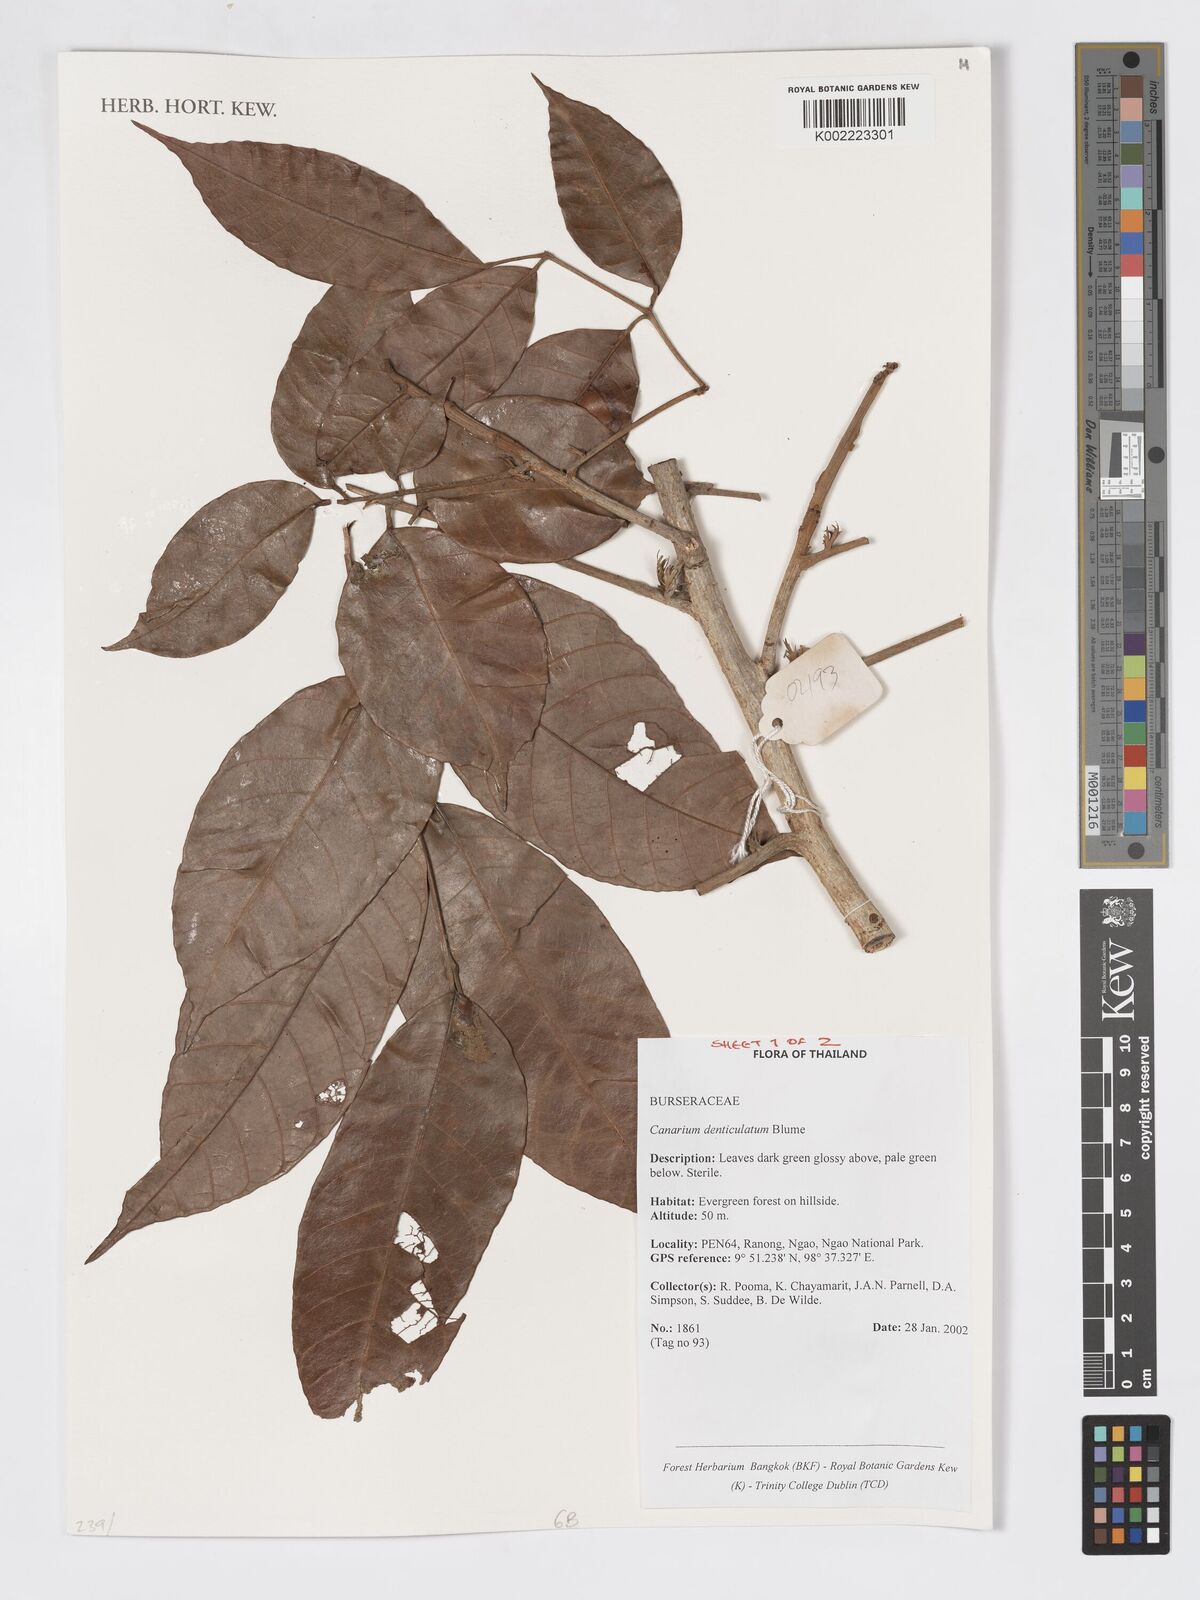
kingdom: Plantae
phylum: Tracheophyta
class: Magnoliopsida
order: Sapindales
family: Burseraceae
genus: Canarium
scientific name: Canarium denticulatum
